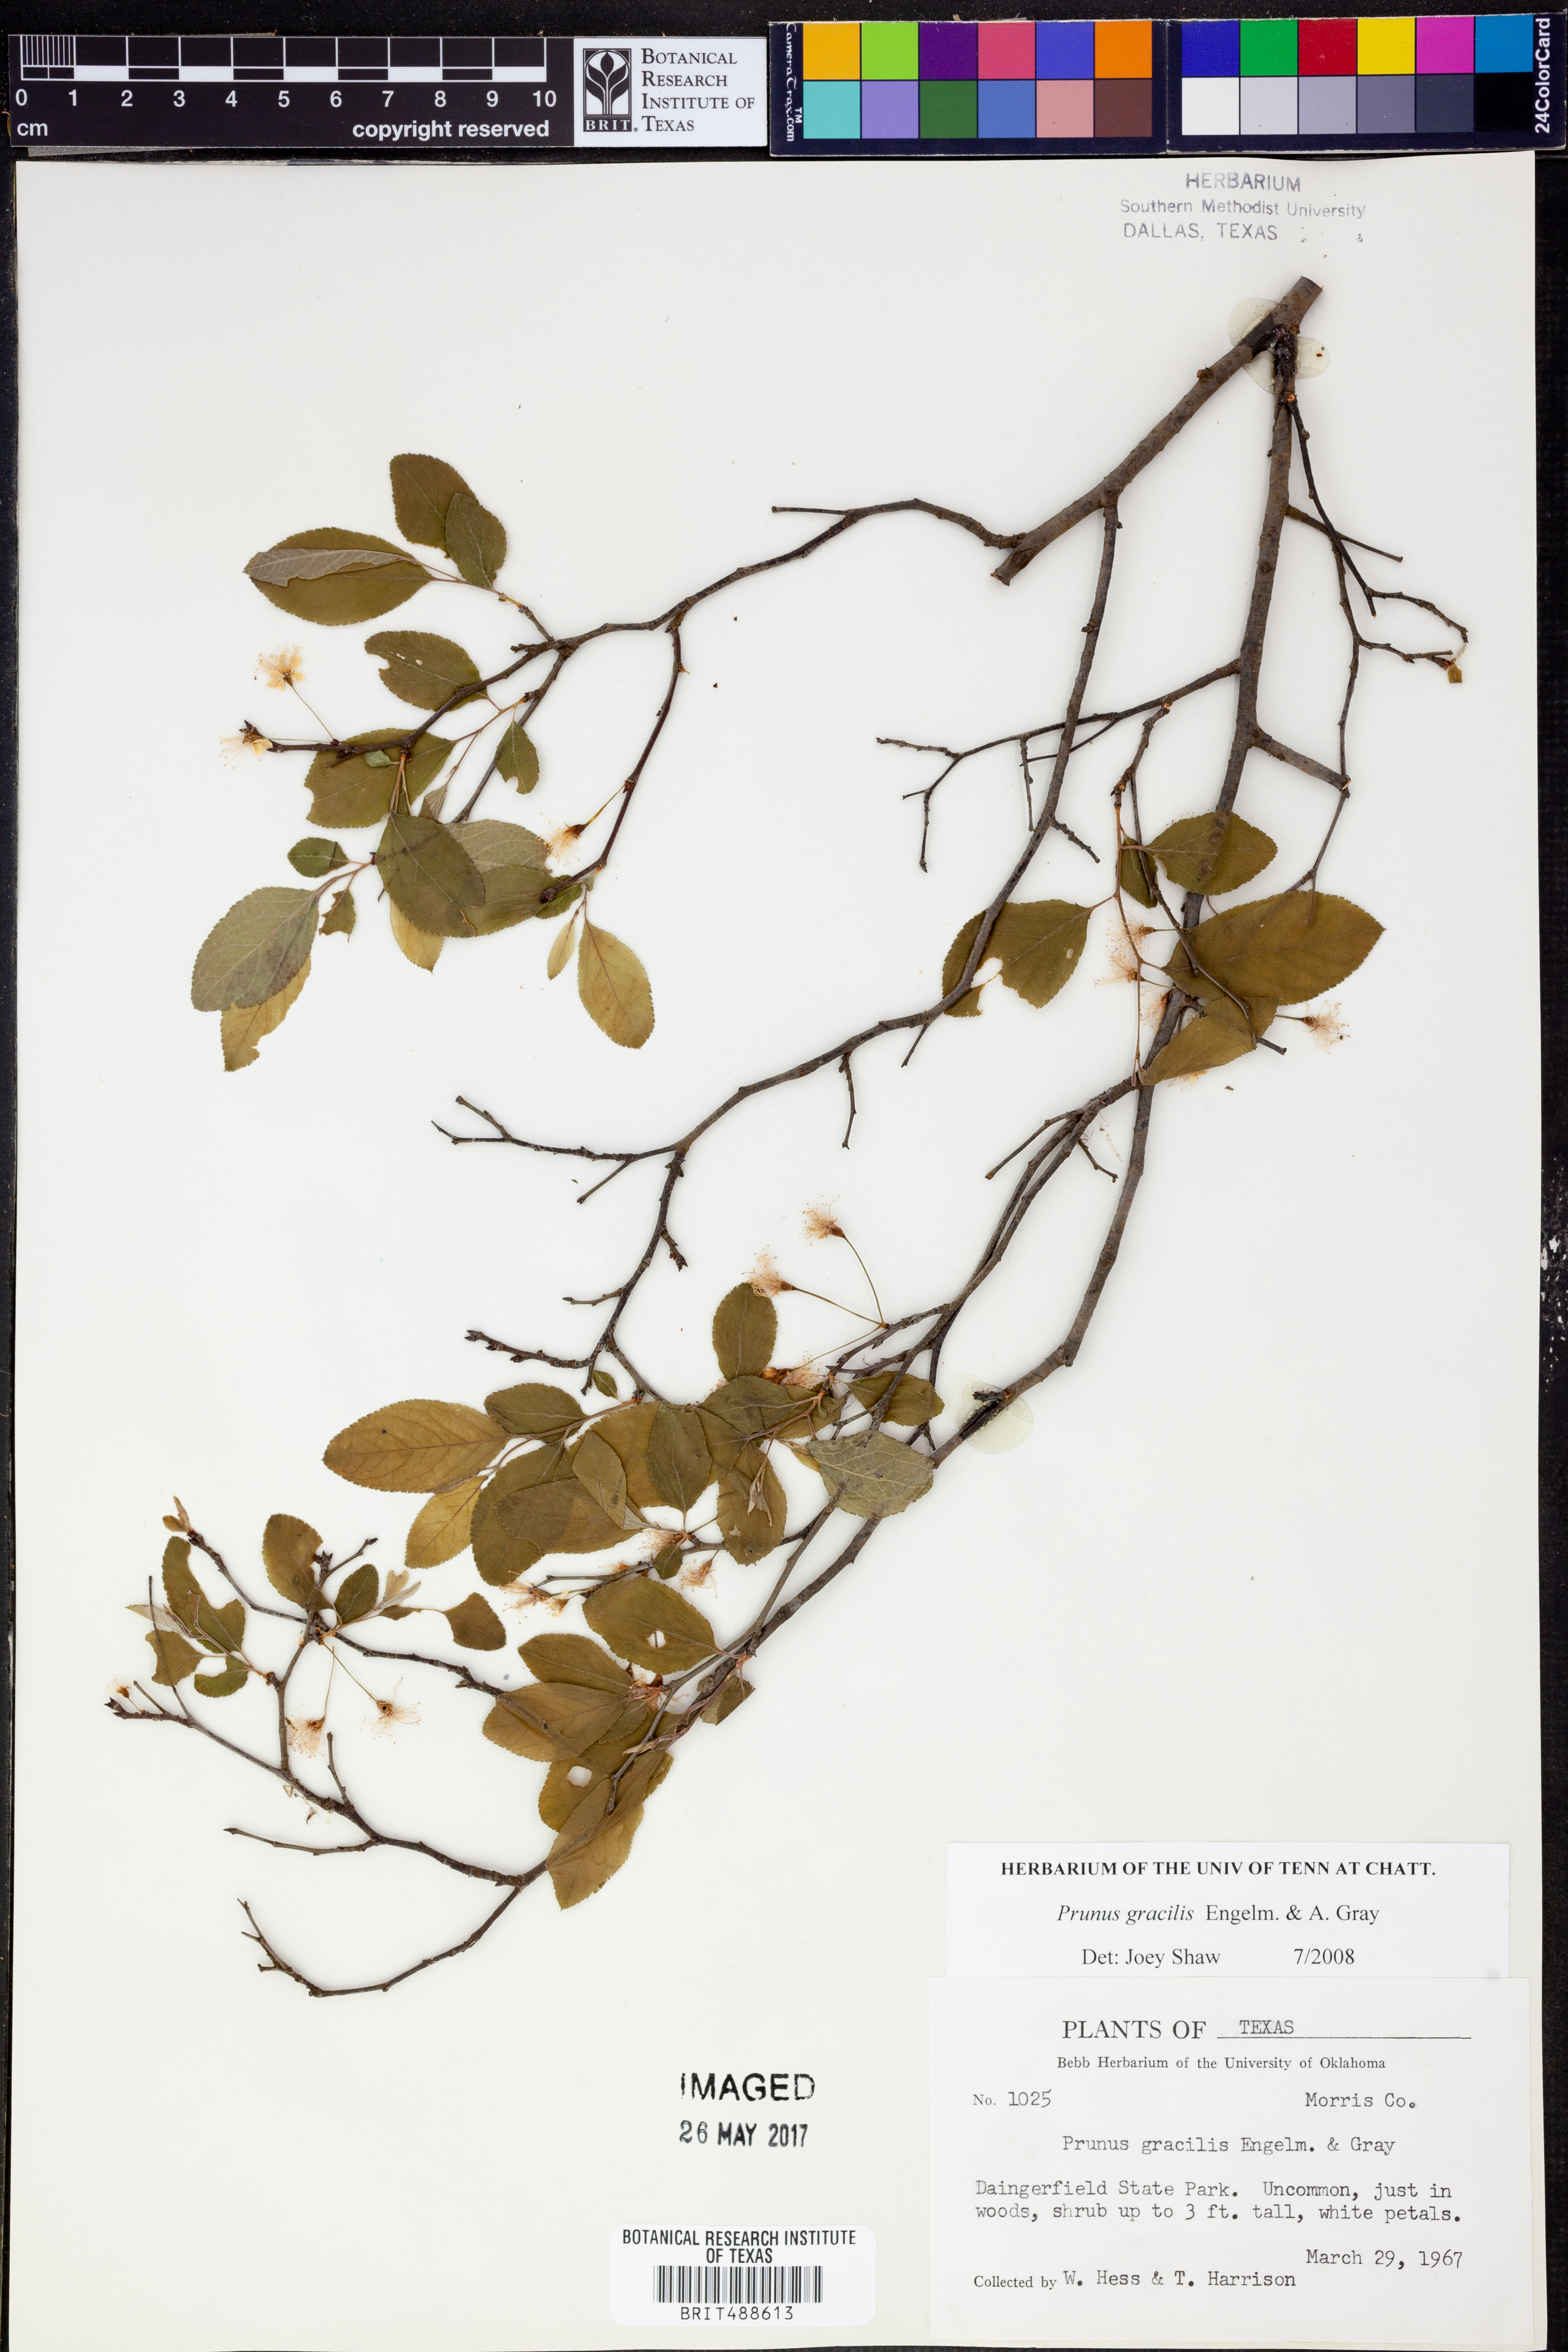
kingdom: Plantae
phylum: Tracheophyta
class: Magnoliopsida
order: Rosales
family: Rosaceae
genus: Prunus
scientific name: Prunus gracilis
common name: Oklahoma plum
